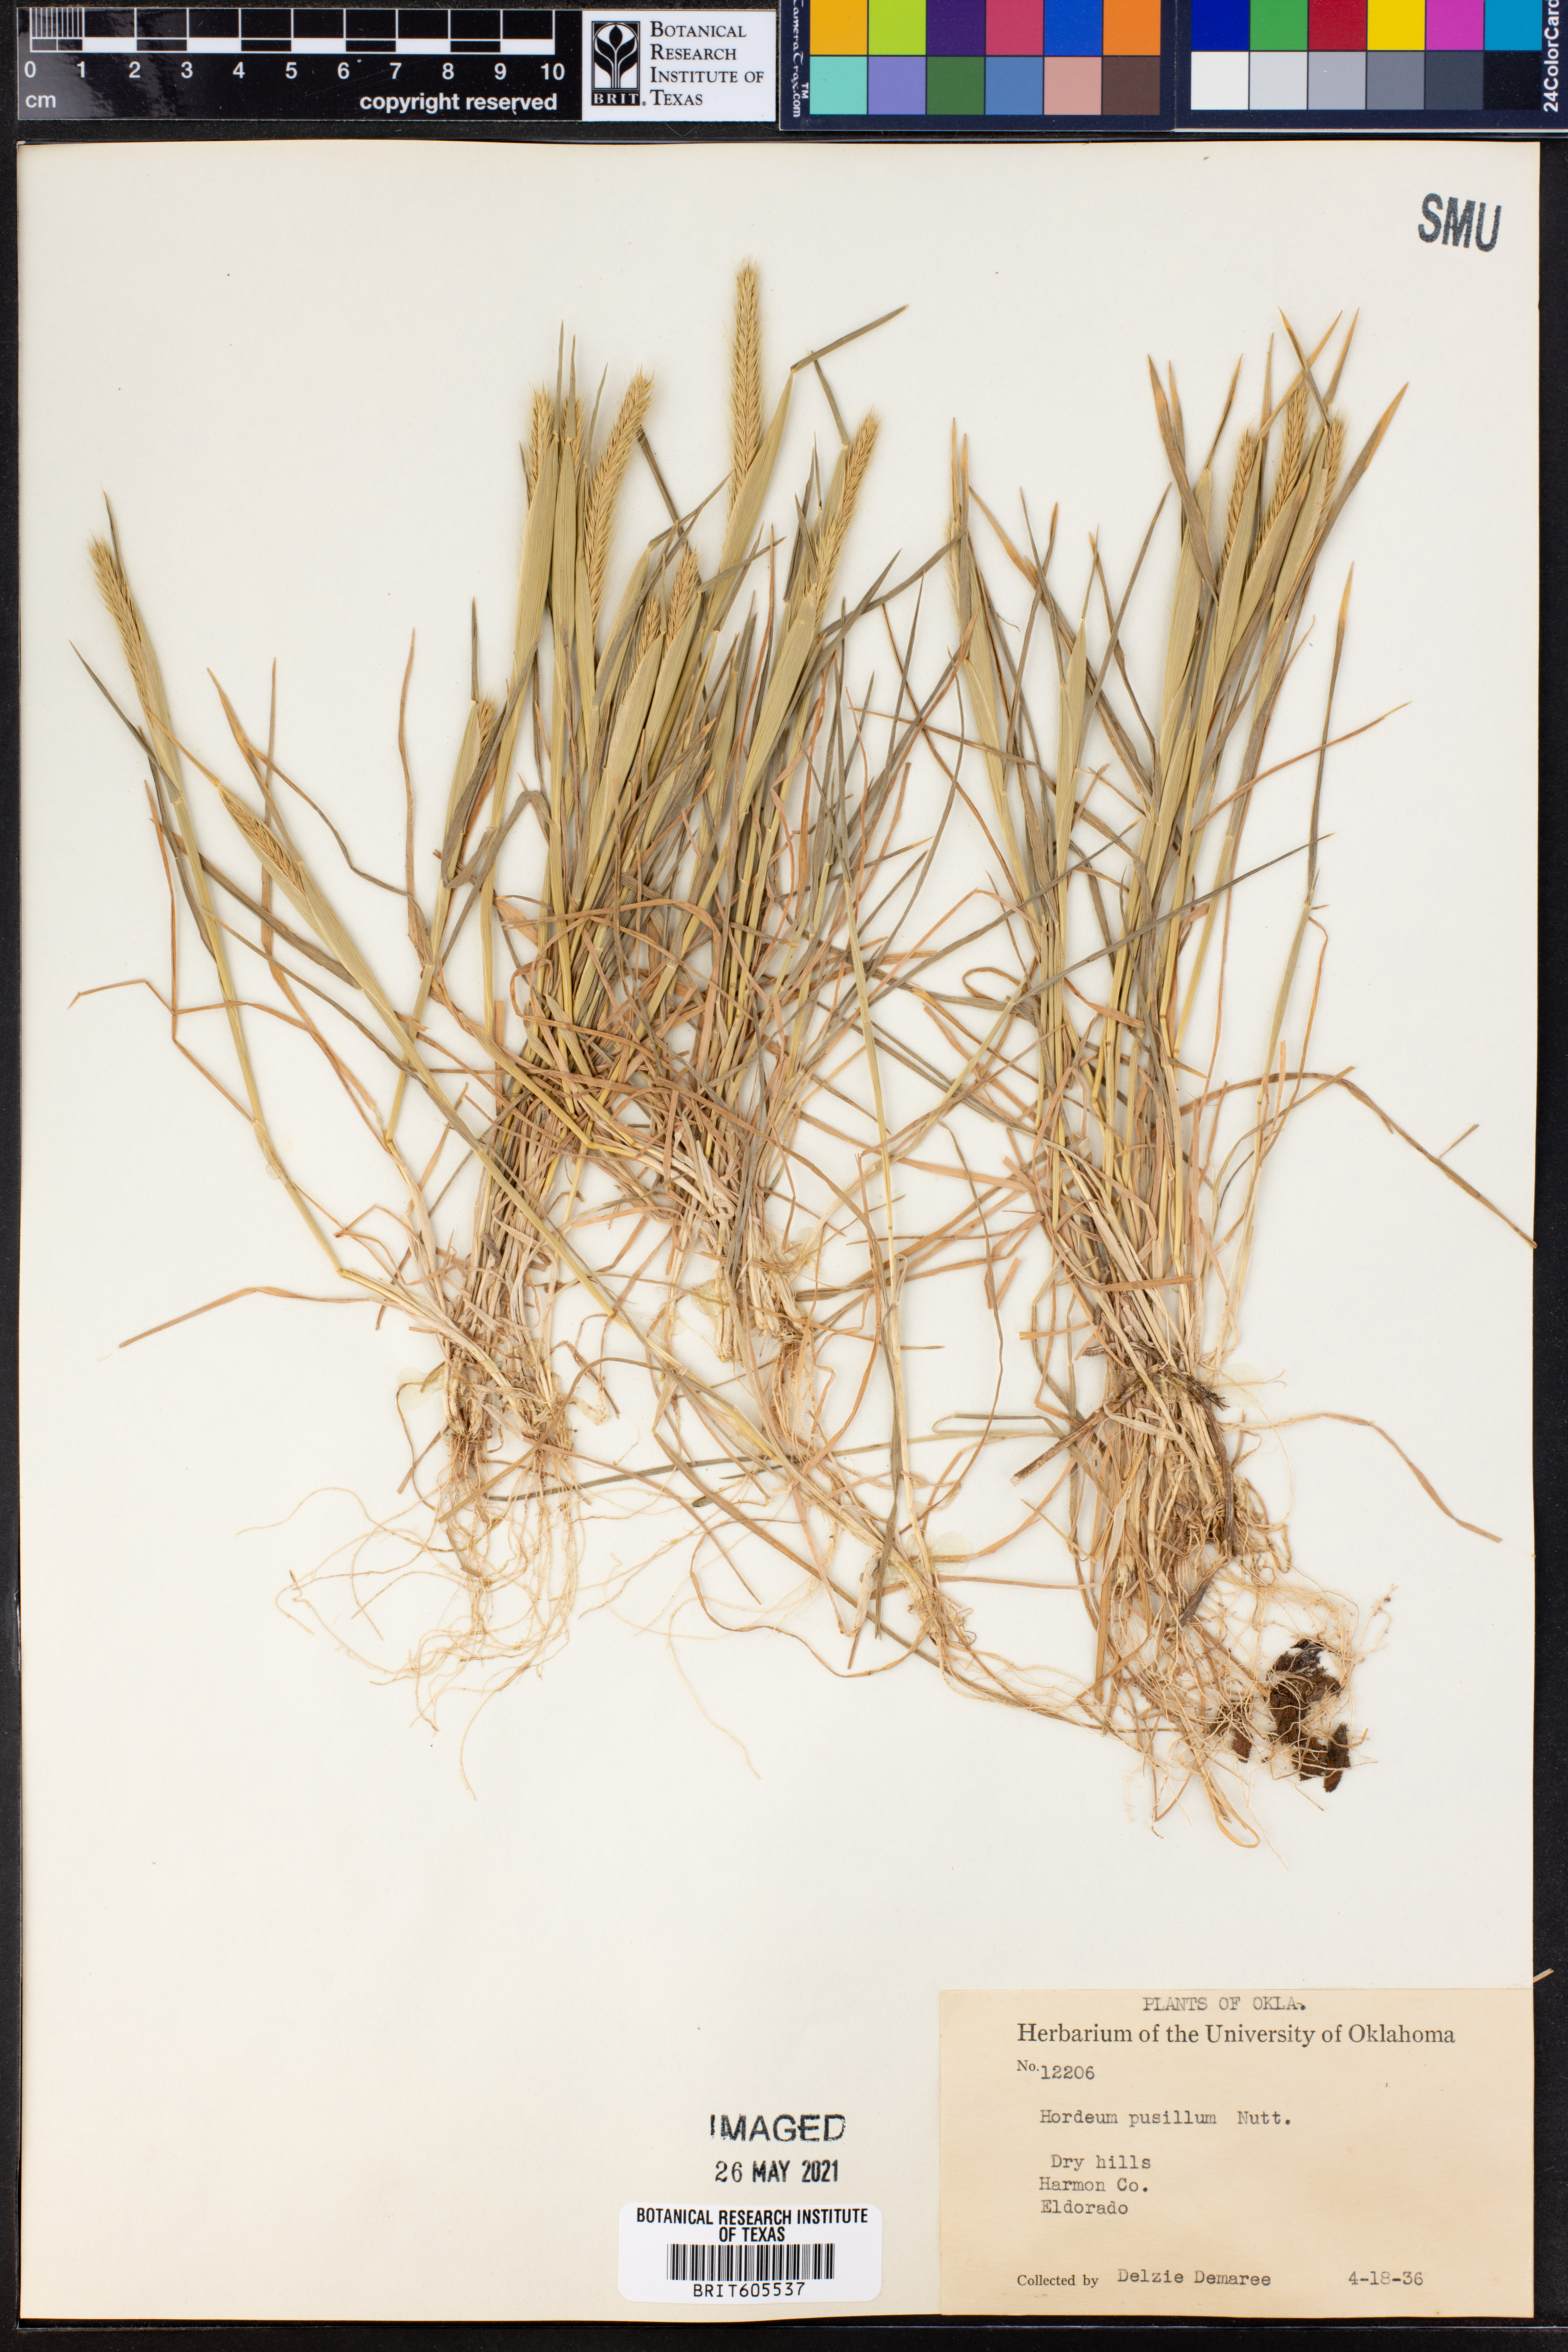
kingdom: Plantae
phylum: Tracheophyta
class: Liliopsida
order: Poales
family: Poaceae
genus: Hordeum
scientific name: Hordeum pusillum
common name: Little barley
